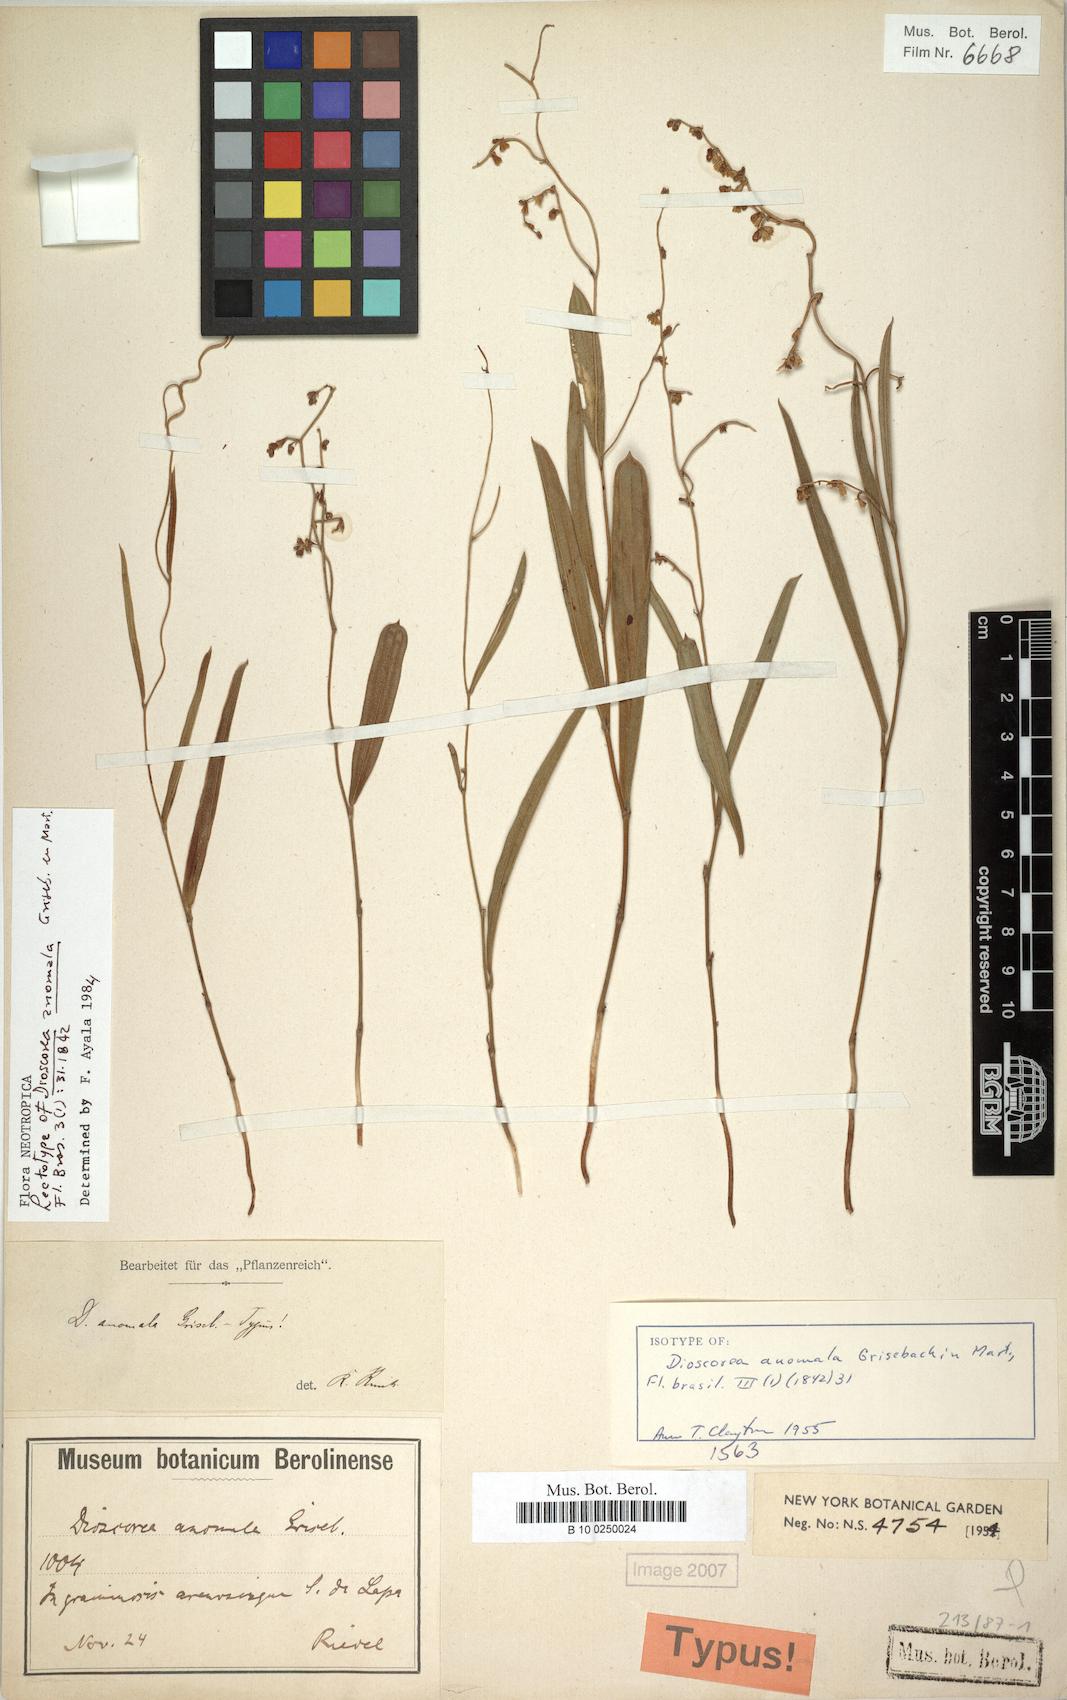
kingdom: Plantae
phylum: Tracheophyta
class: Liliopsida
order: Dioscoreales
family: Dioscoreaceae
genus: Dioscorea
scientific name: Dioscorea anomala
